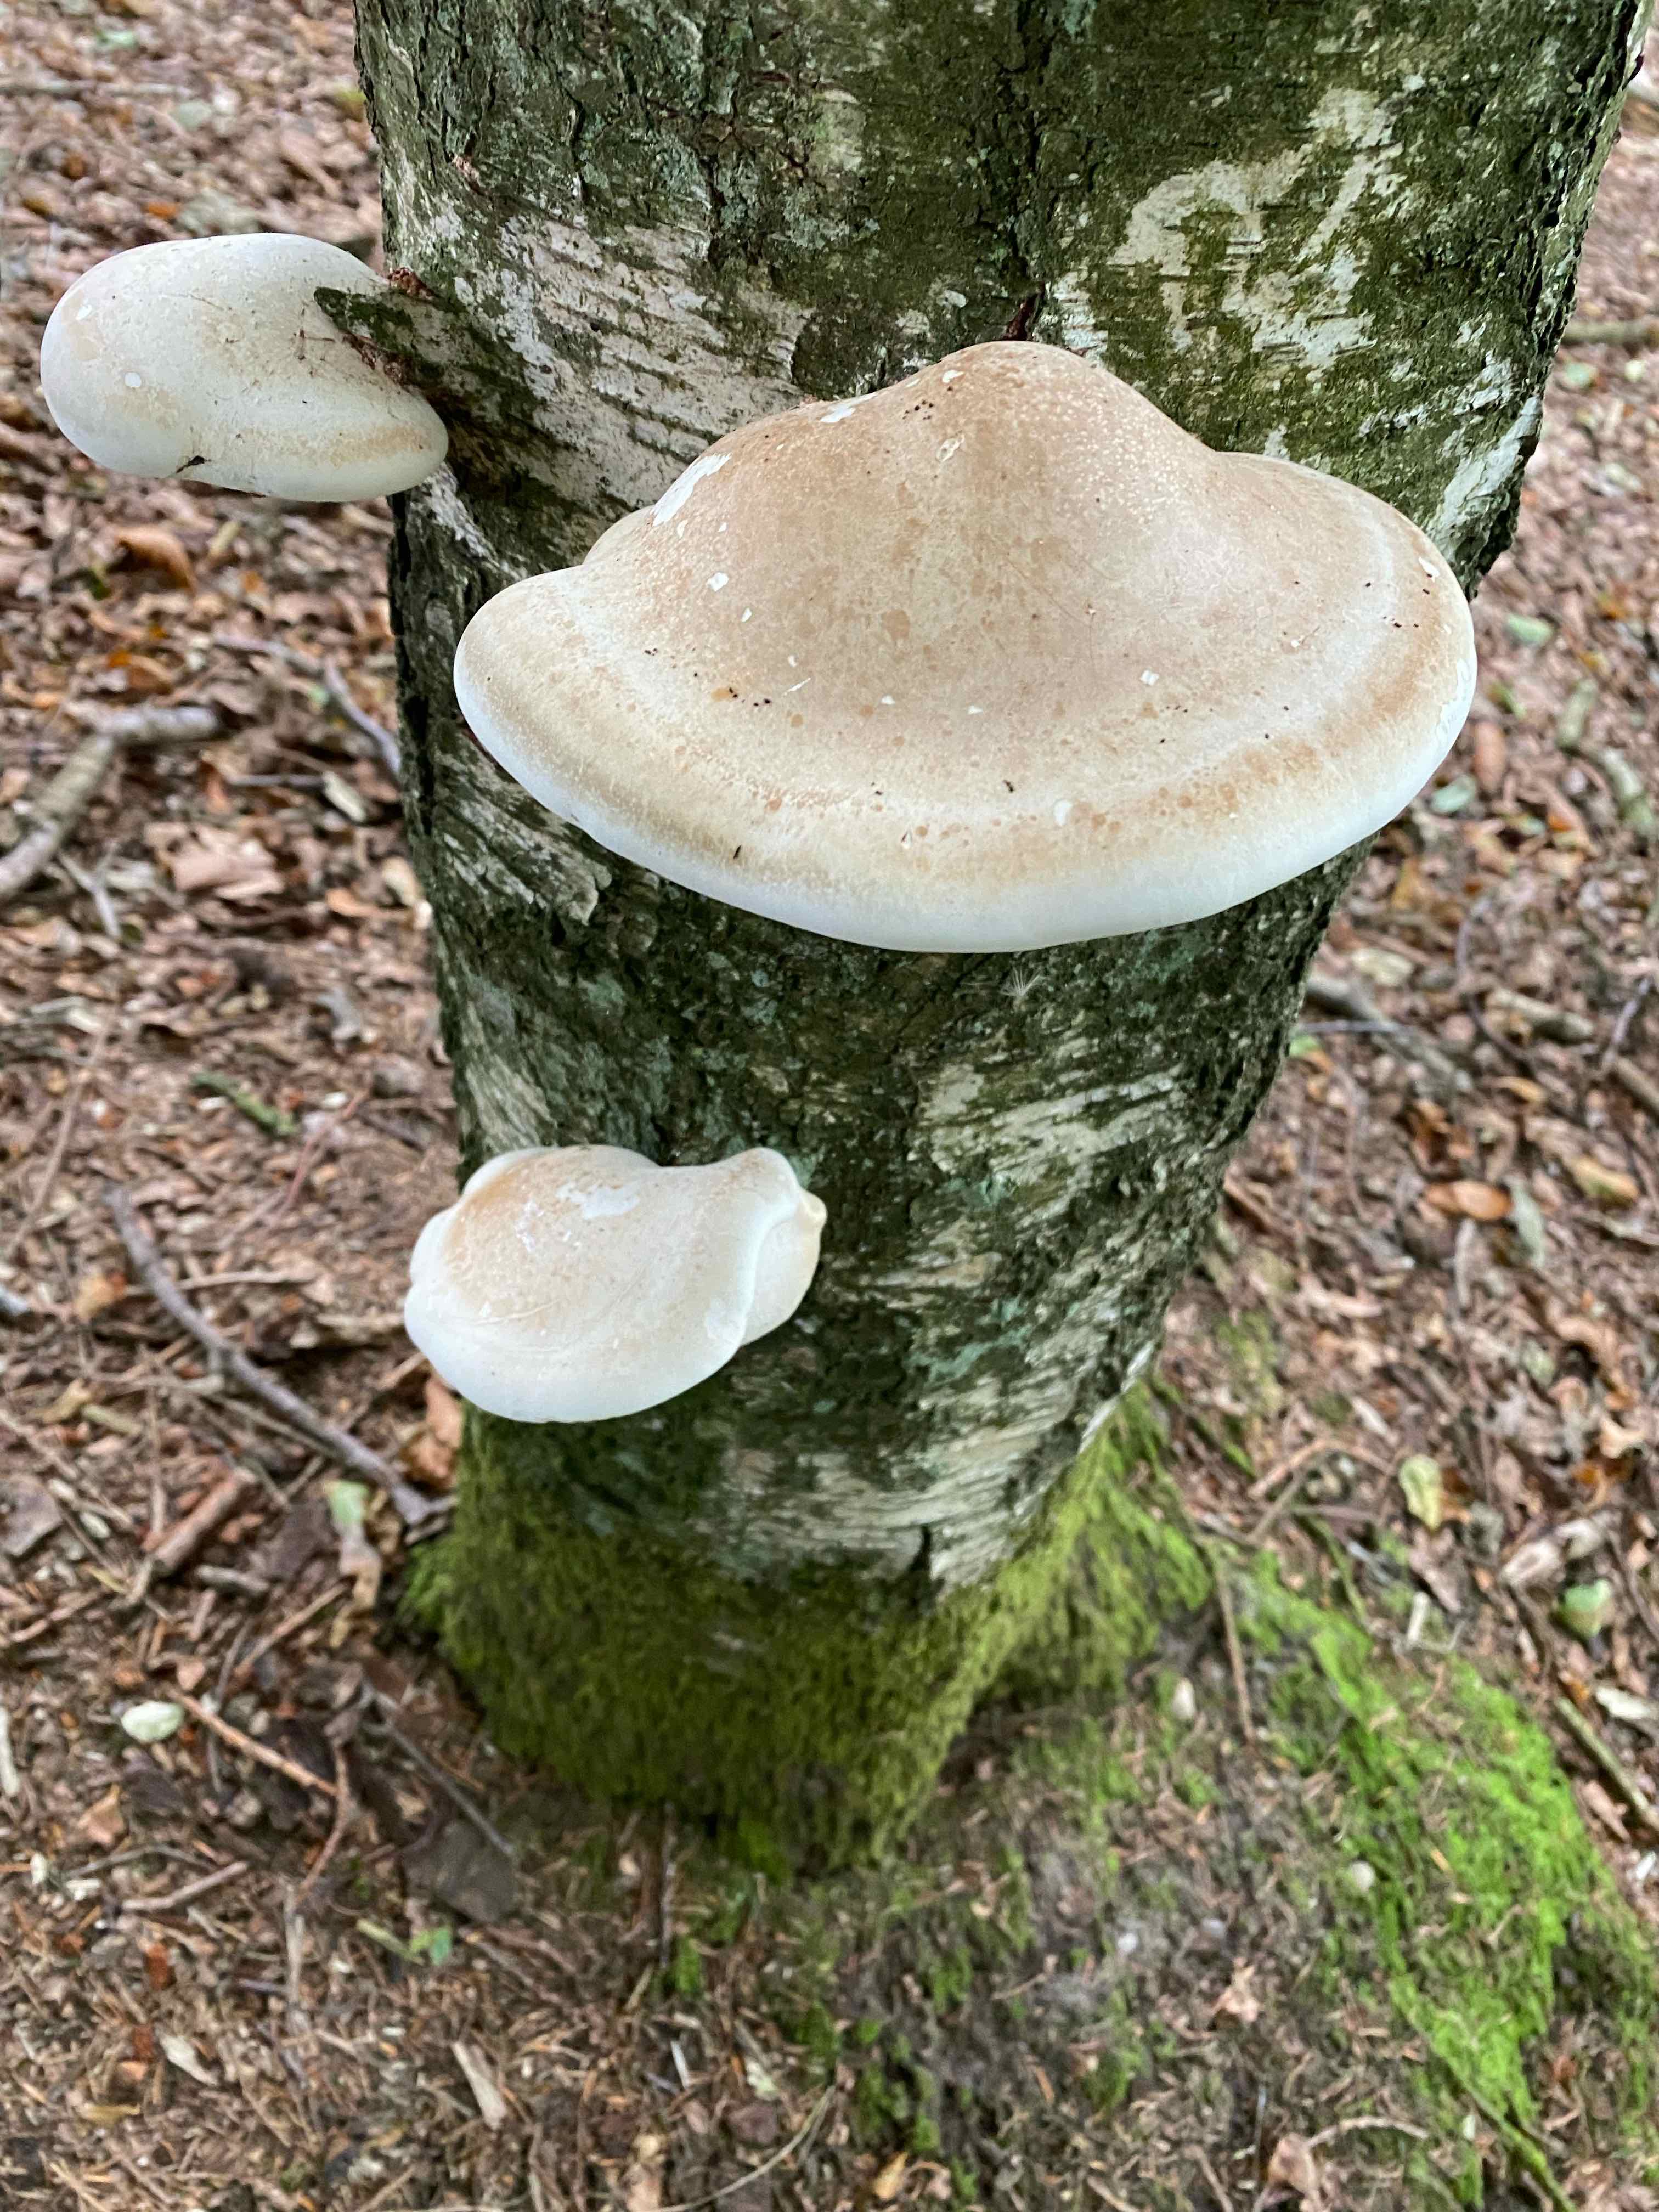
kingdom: Fungi
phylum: Basidiomycota
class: Agaricomycetes
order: Polyporales
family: Fomitopsidaceae
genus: Fomitopsis
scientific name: Fomitopsis betulina
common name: birkeporesvamp
